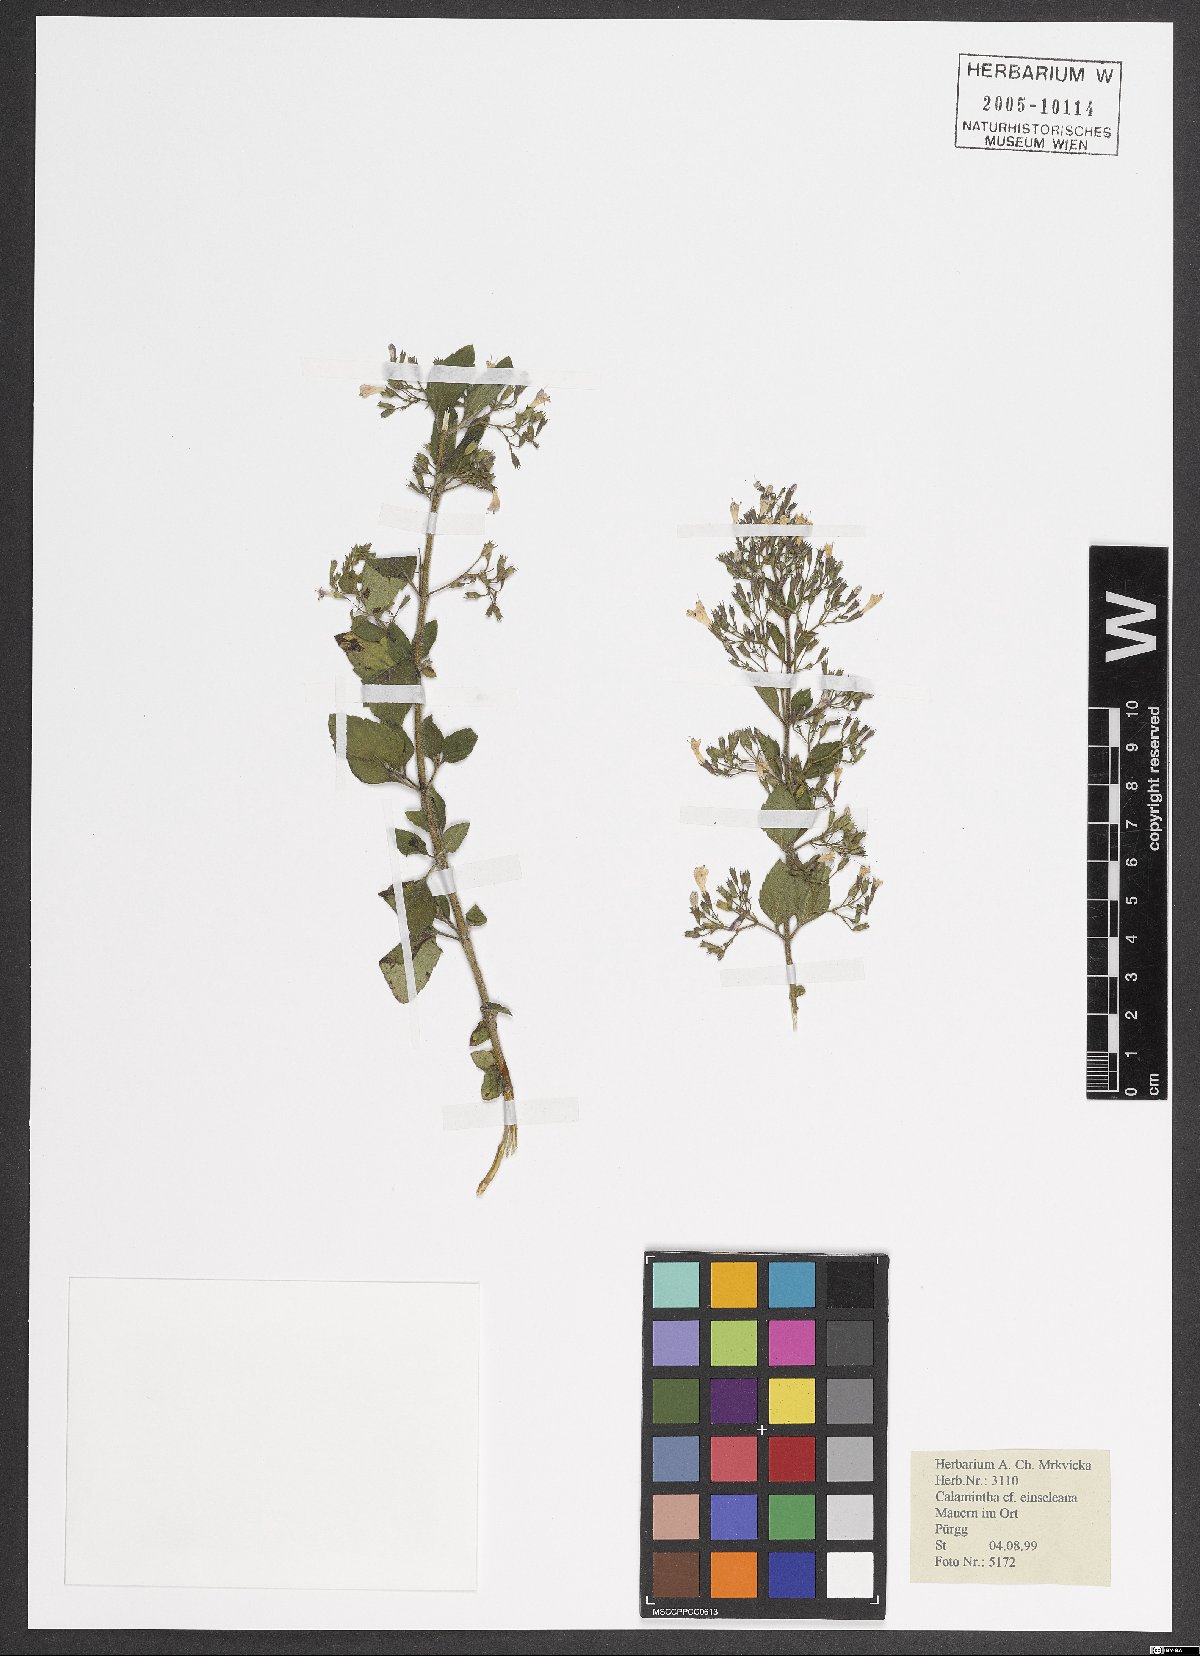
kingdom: Plantae
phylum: Tracheophyta
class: Magnoliopsida
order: Lamiales
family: Lamiaceae
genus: Clinopodium
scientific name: Clinopodium nepeta
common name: Lesser calamint
